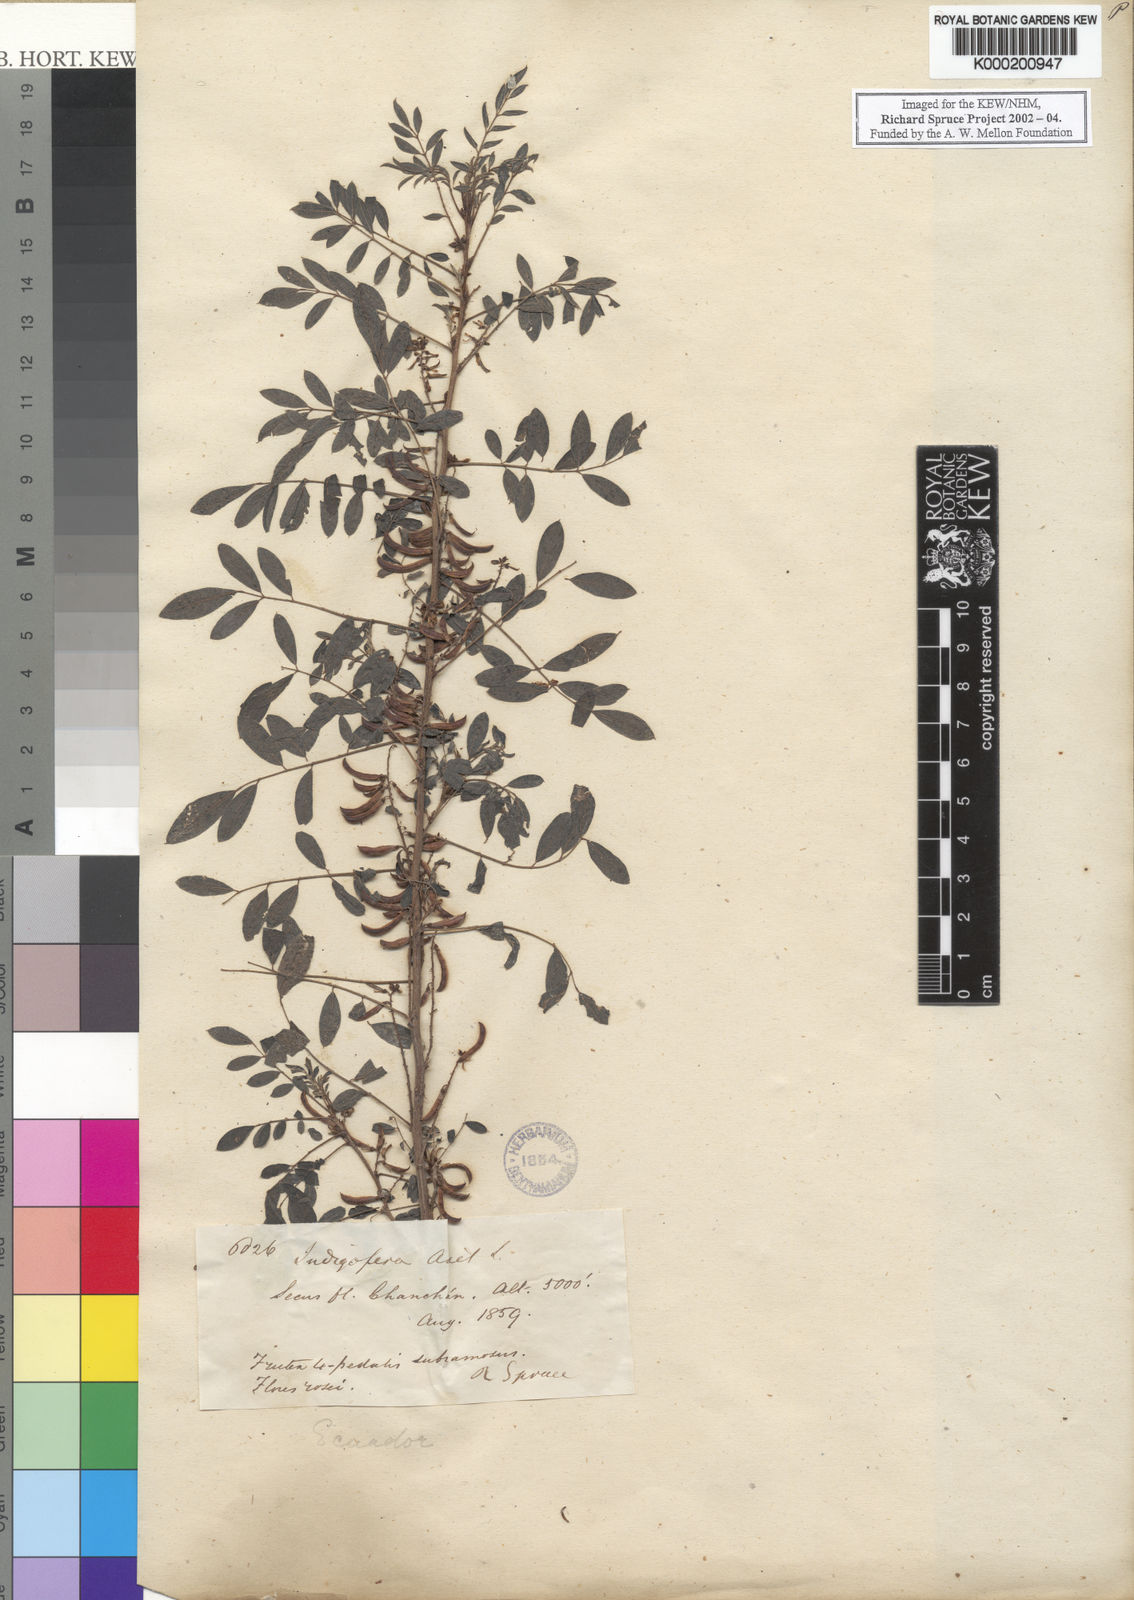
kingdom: Plantae
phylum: Tracheophyta
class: Magnoliopsida
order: Fabales
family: Fabaceae
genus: Indigofera
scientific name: Indigofera suffruticosa
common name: Anil de pasto
